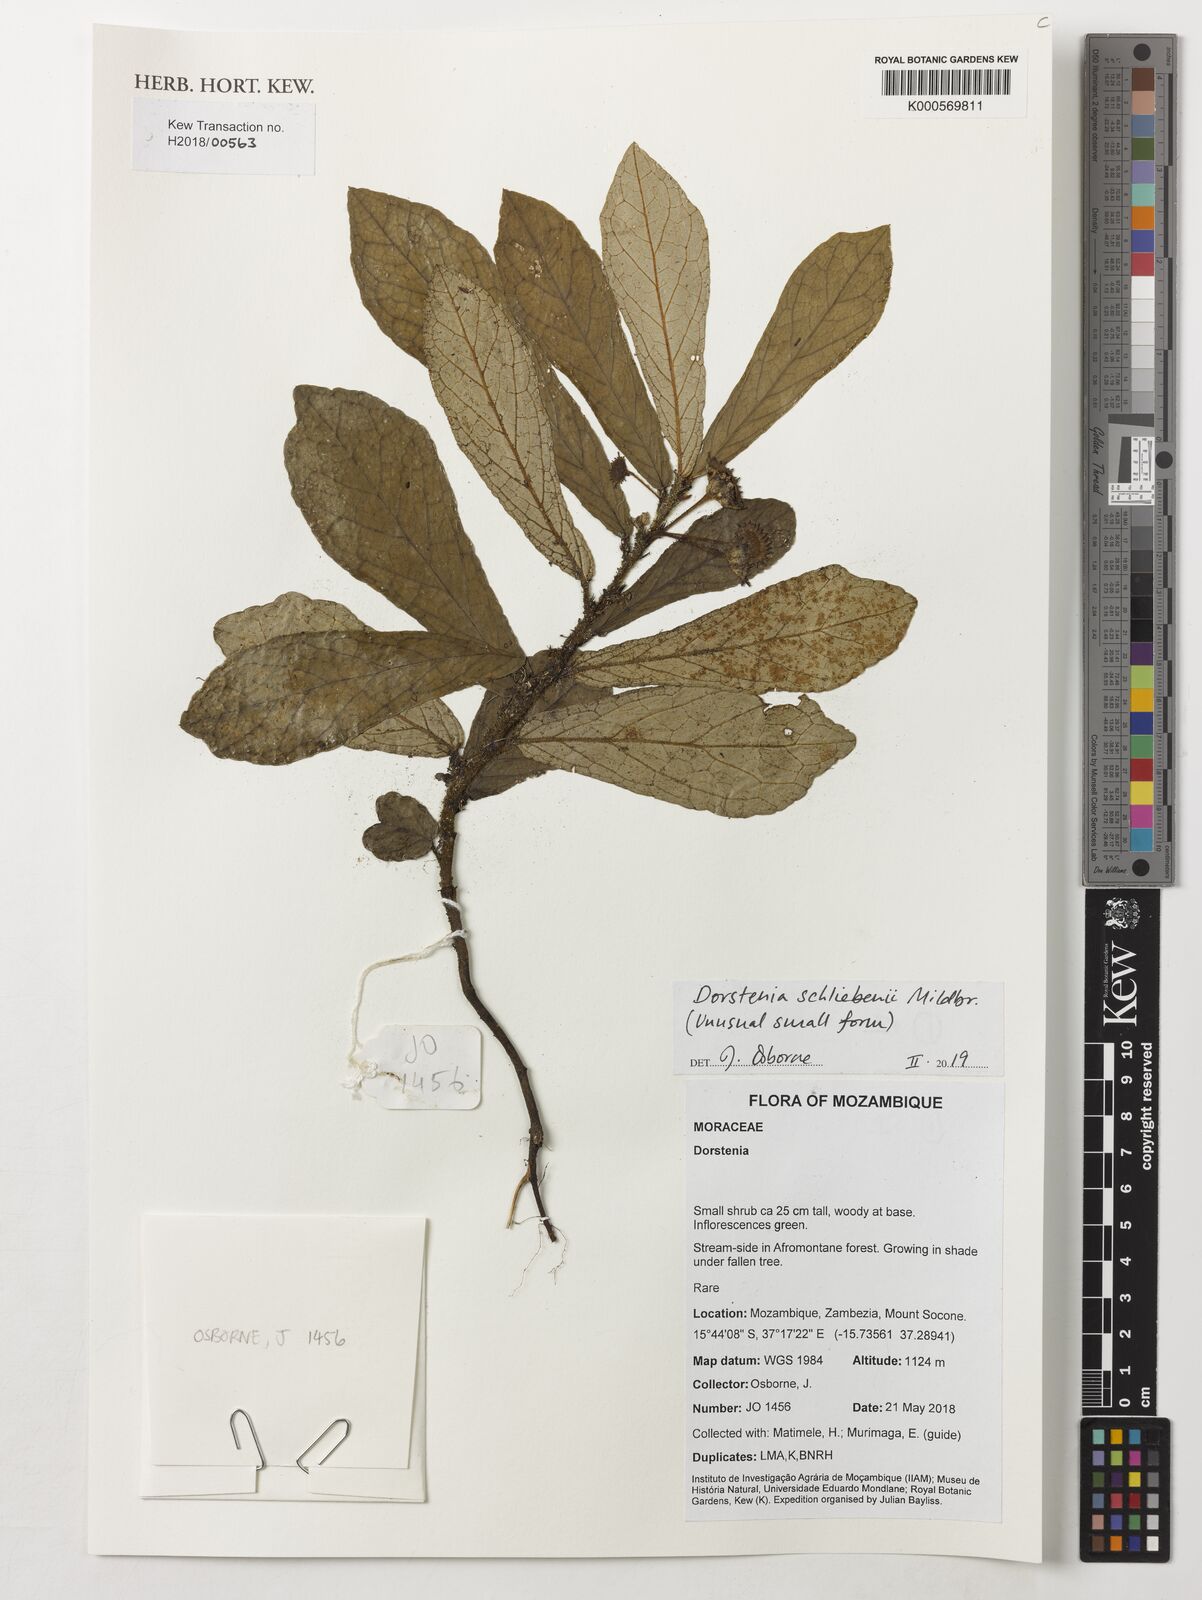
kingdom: Plantae
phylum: Tracheophyta
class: Magnoliopsida
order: Rosales
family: Moraceae
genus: Dorstenia
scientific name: Dorstenia schliebenii
